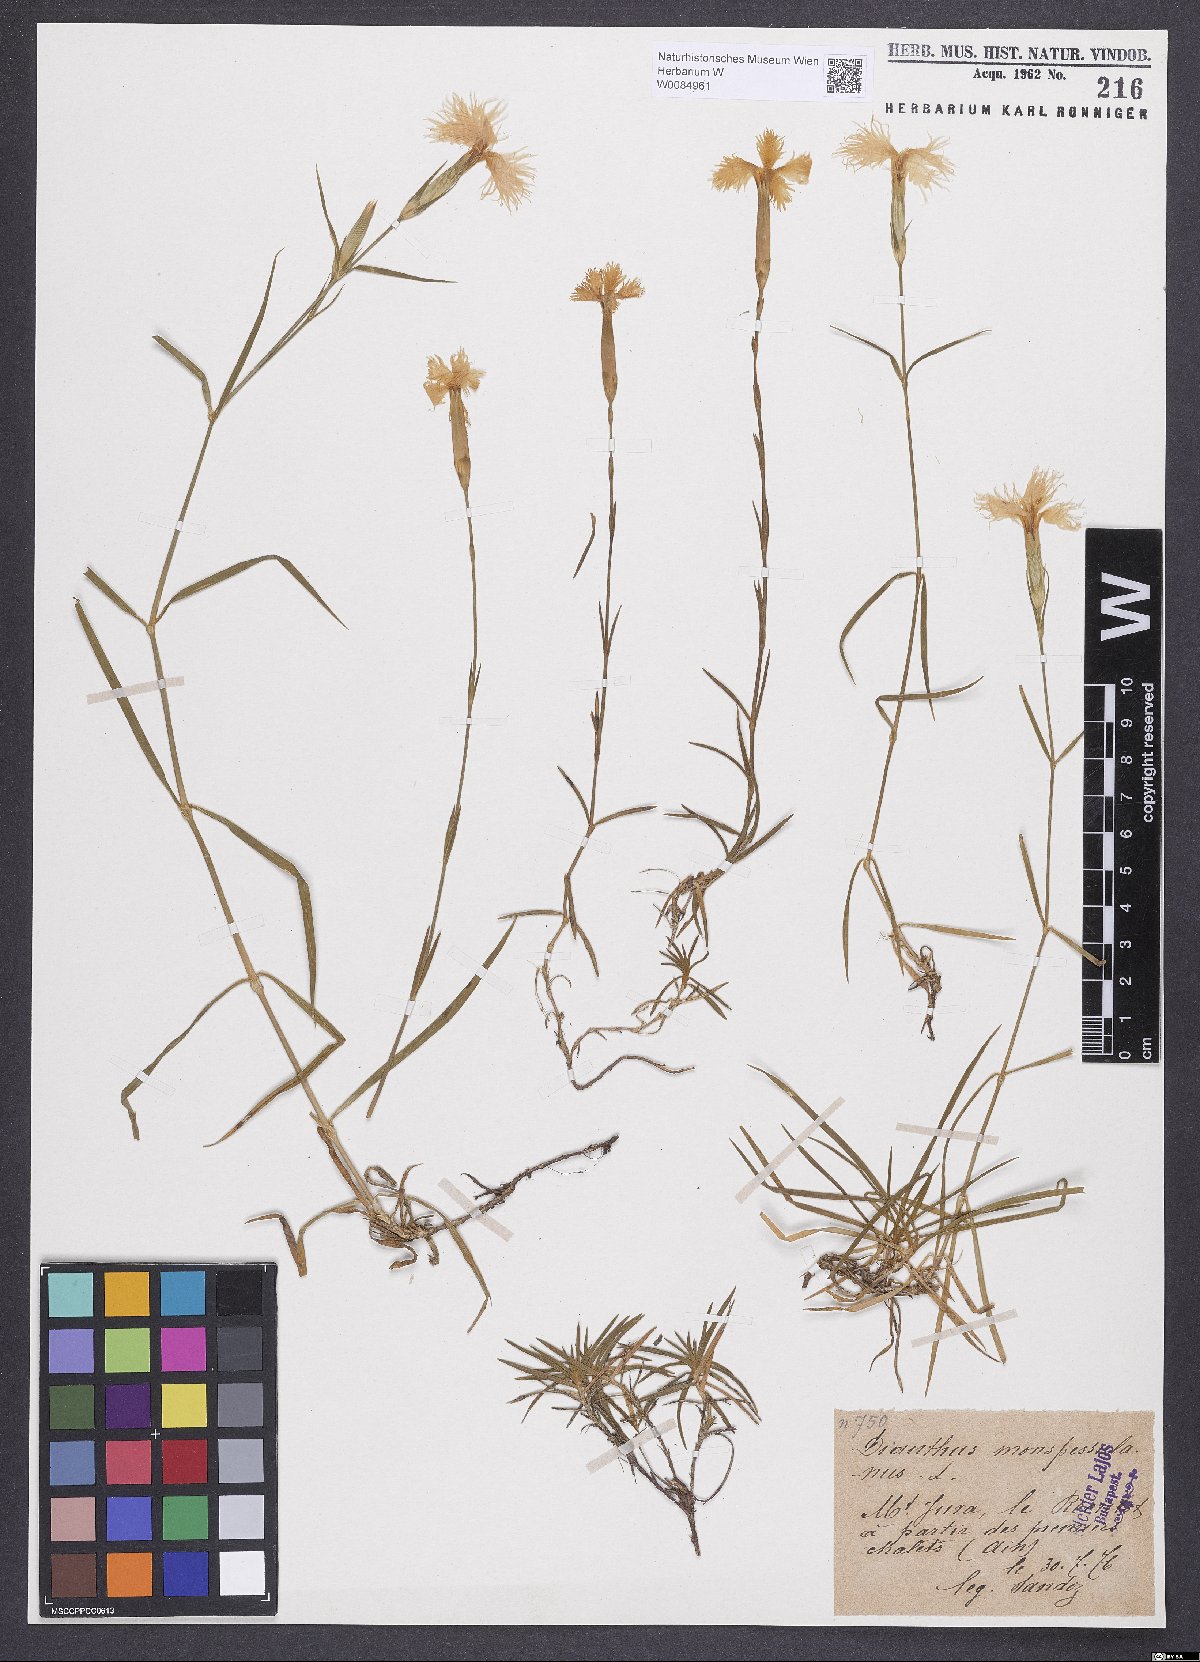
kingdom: Plantae
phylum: Tracheophyta
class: Magnoliopsida
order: Caryophyllales
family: Caryophyllaceae
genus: Dianthus
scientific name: Dianthus hyssopifolius
